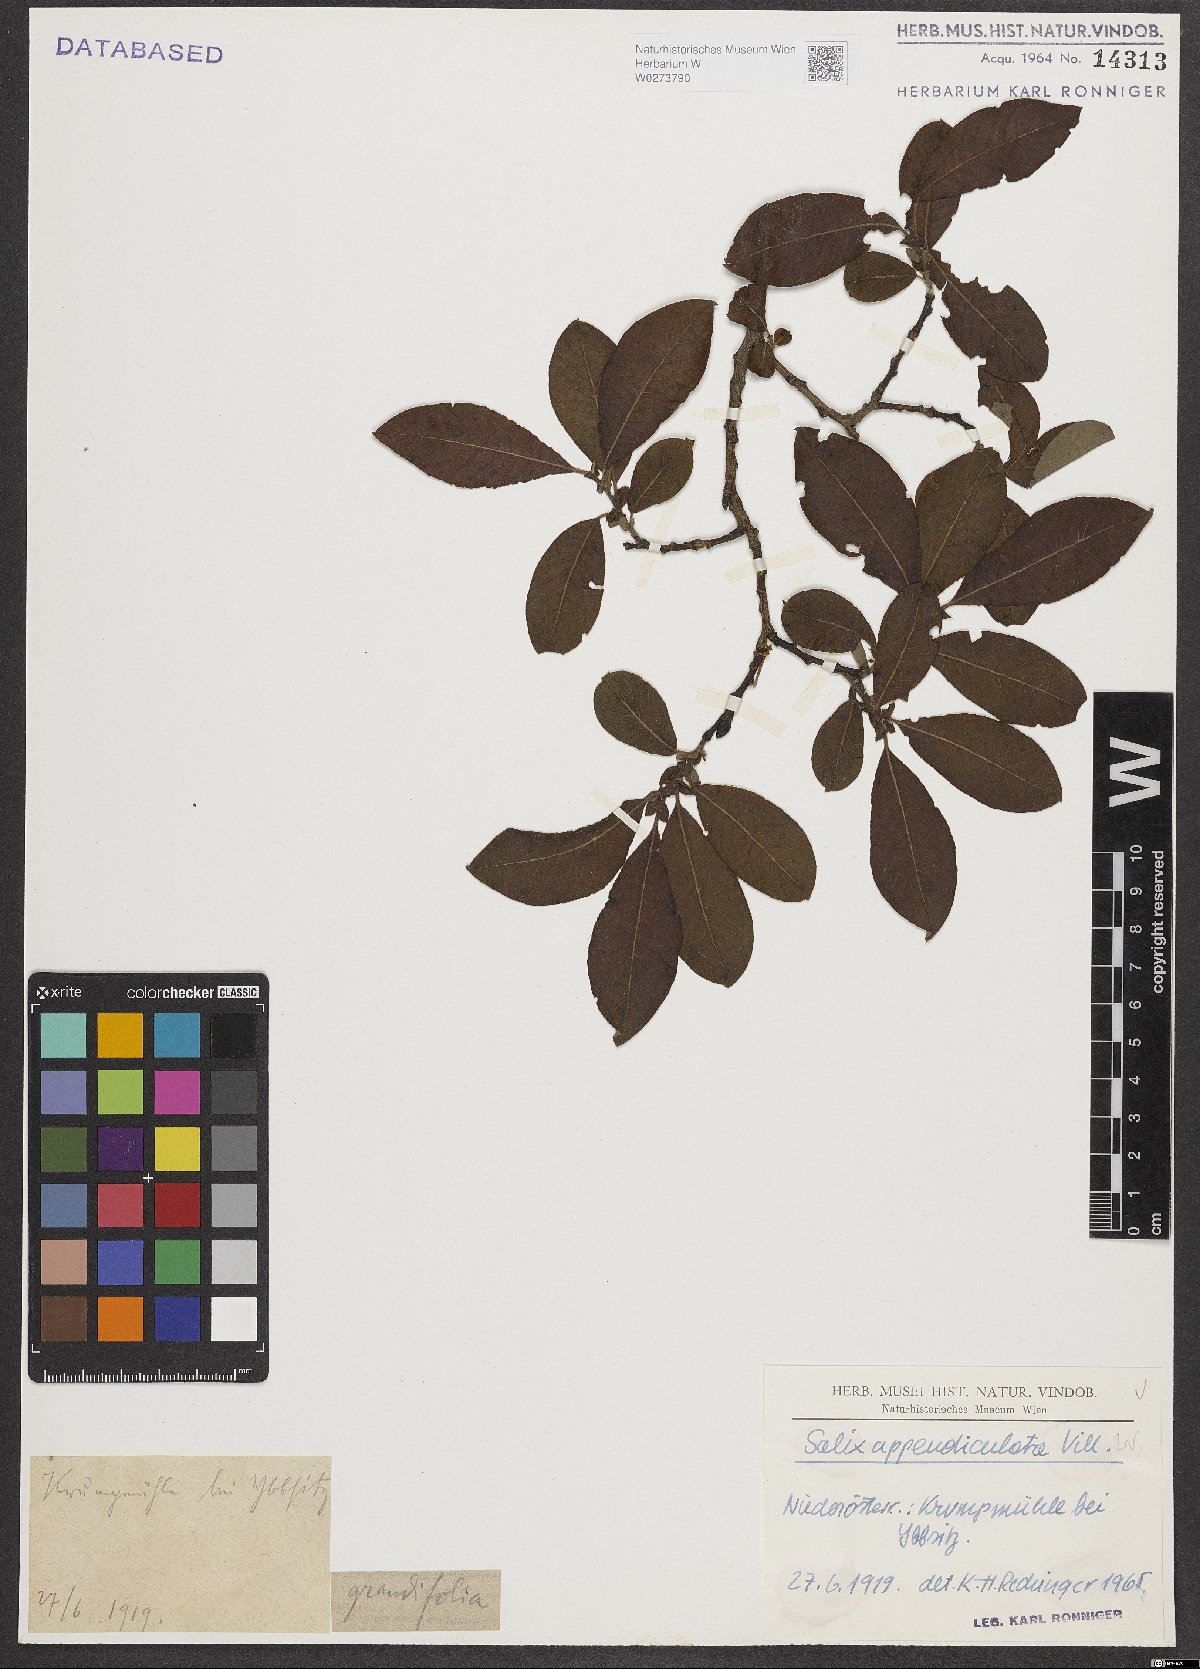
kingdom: Plantae
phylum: Tracheophyta
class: Magnoliopsida
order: Malpighiales
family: Salicaceae
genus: Salix
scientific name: Salix appendiculata
